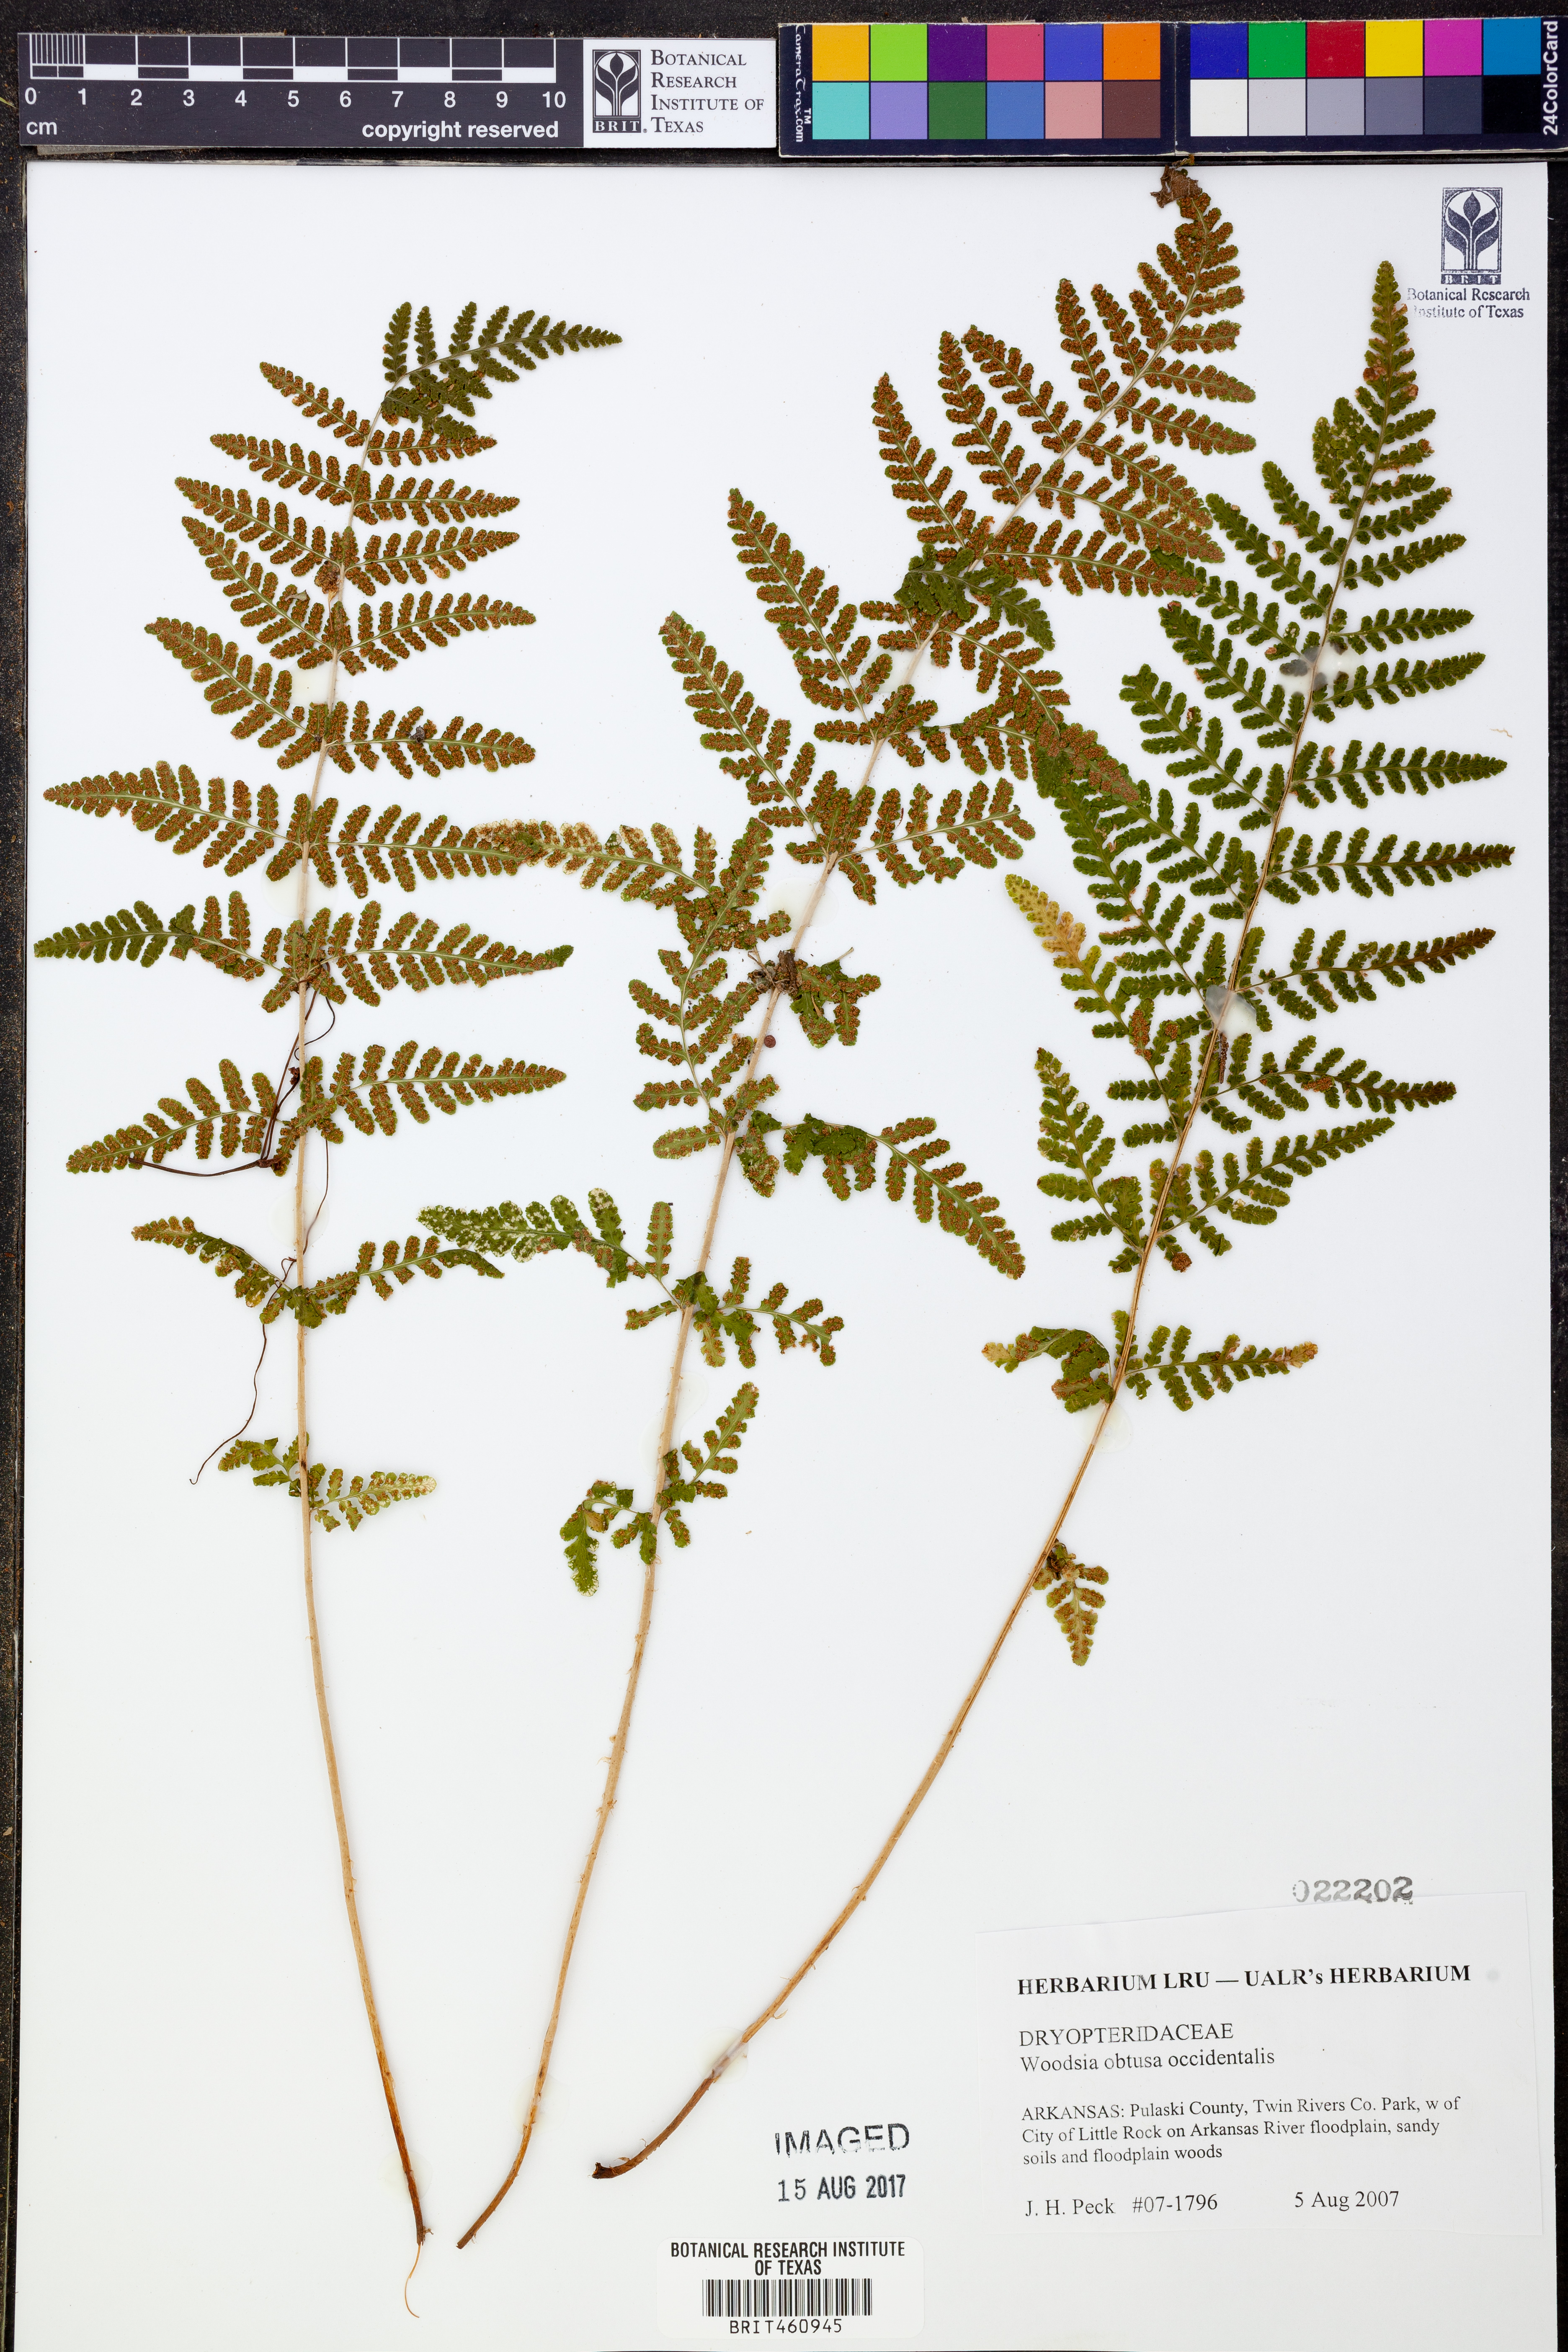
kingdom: Plantae
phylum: Tracheophyta
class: Polypodiopsida
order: Polypodiales
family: Woodsiaceae
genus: Physematium
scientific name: Physematium obtusum
